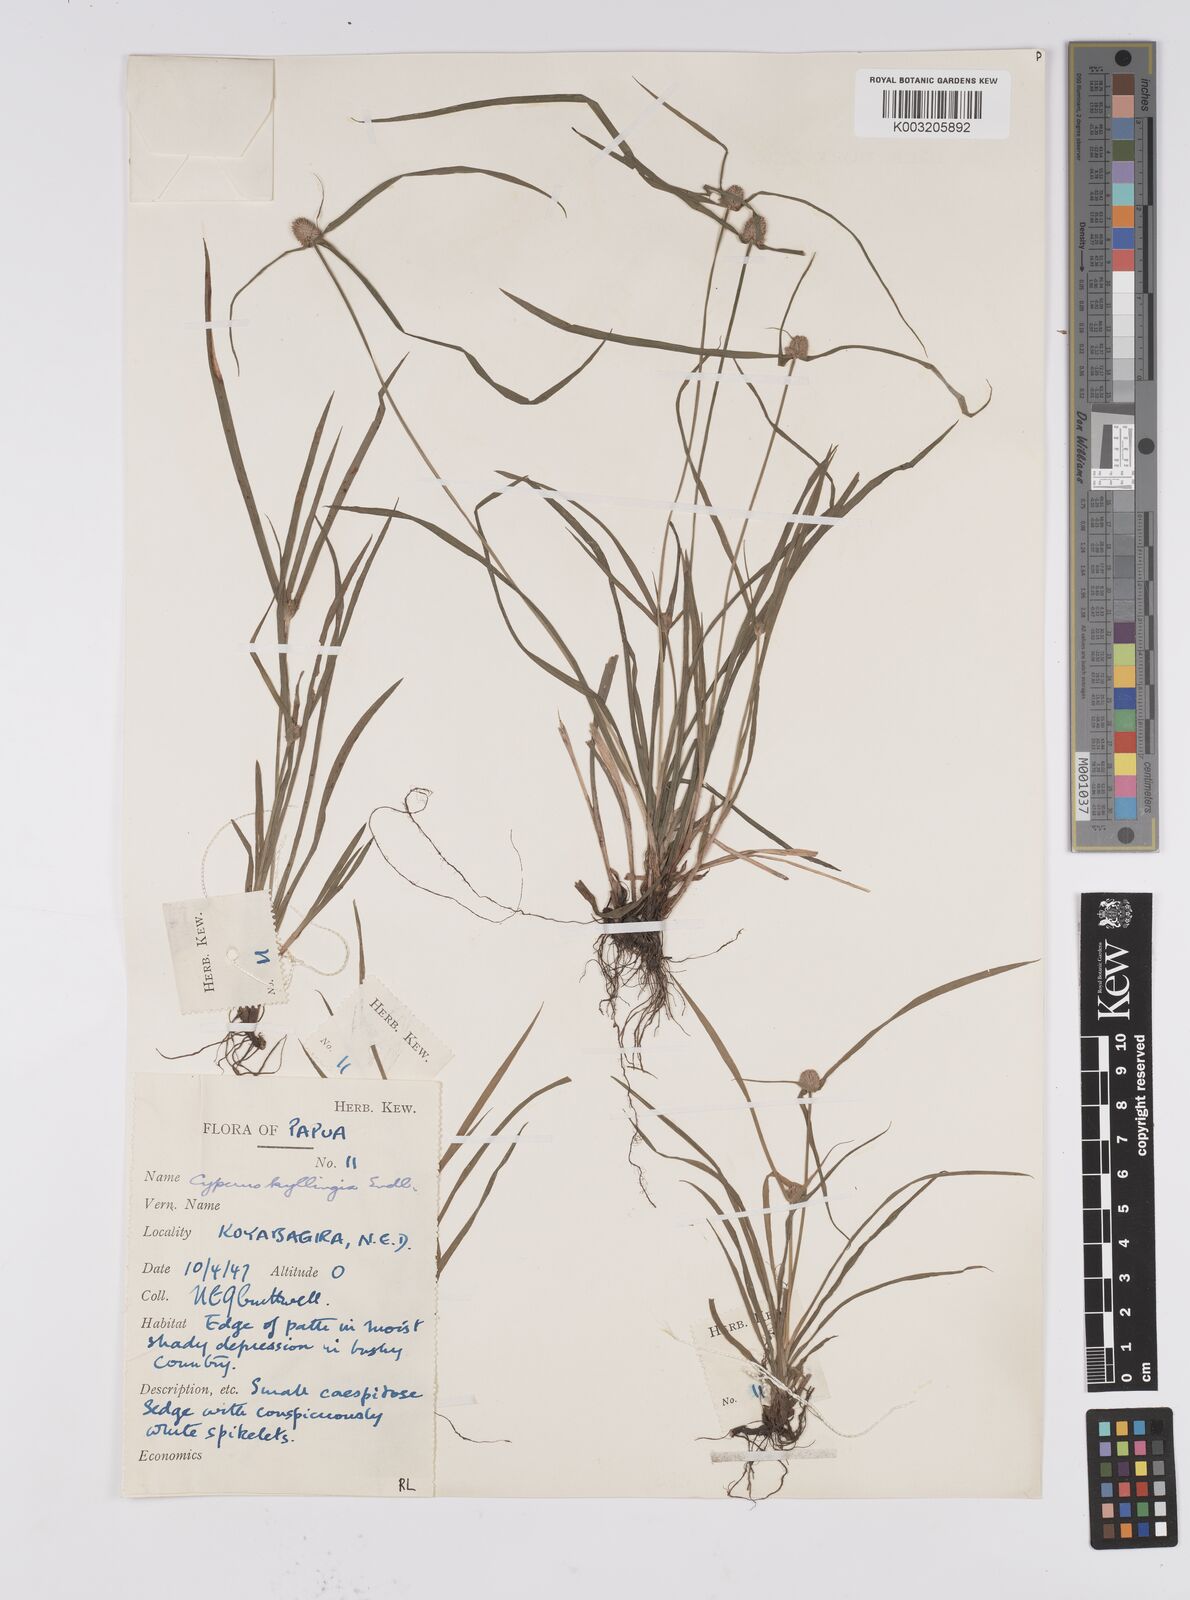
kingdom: Plantae
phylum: Tracheophyta
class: Liliopsida
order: Poales
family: Cyperaceae
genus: Cyperus
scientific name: Cyperus nemoralis
